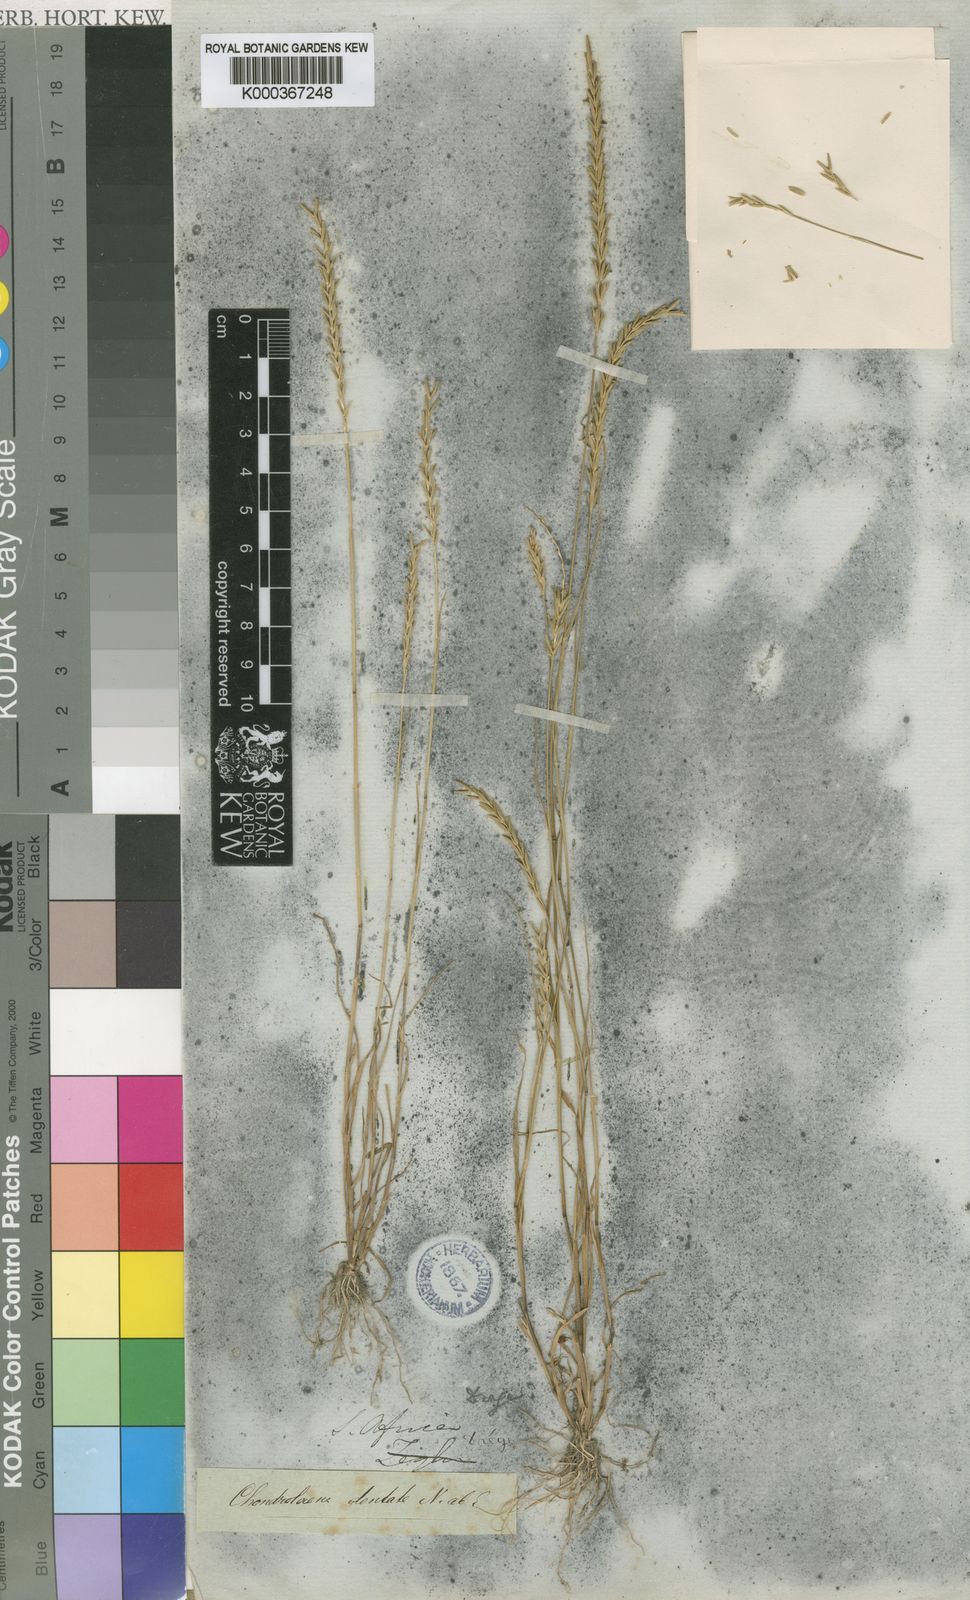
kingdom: Plantae
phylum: Tracheophyta
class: Liliopsida
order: Poales
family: Poaceae
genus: Pentameris
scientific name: Pentameris ecklonii
